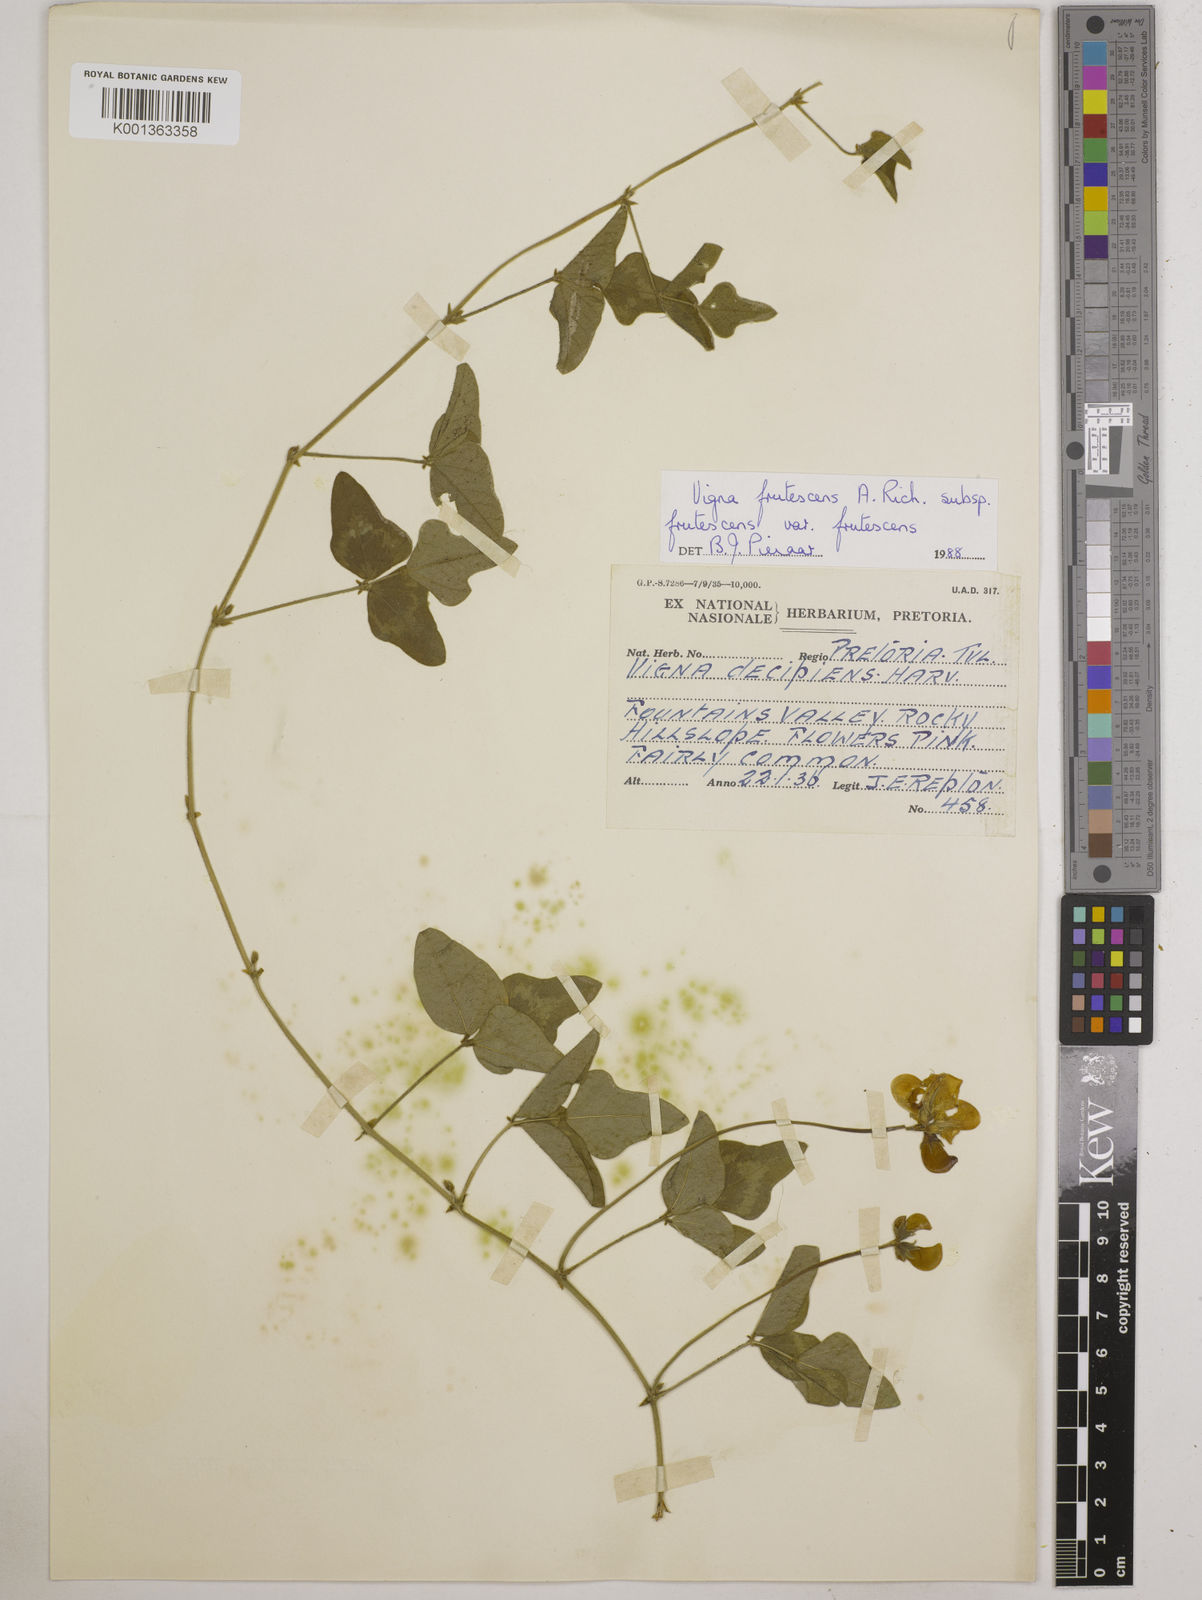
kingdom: Plantae
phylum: Tracheophyta
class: Magnoliopsida
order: Fabales
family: Fabaceae
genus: Vigna
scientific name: Vigna frutescens
